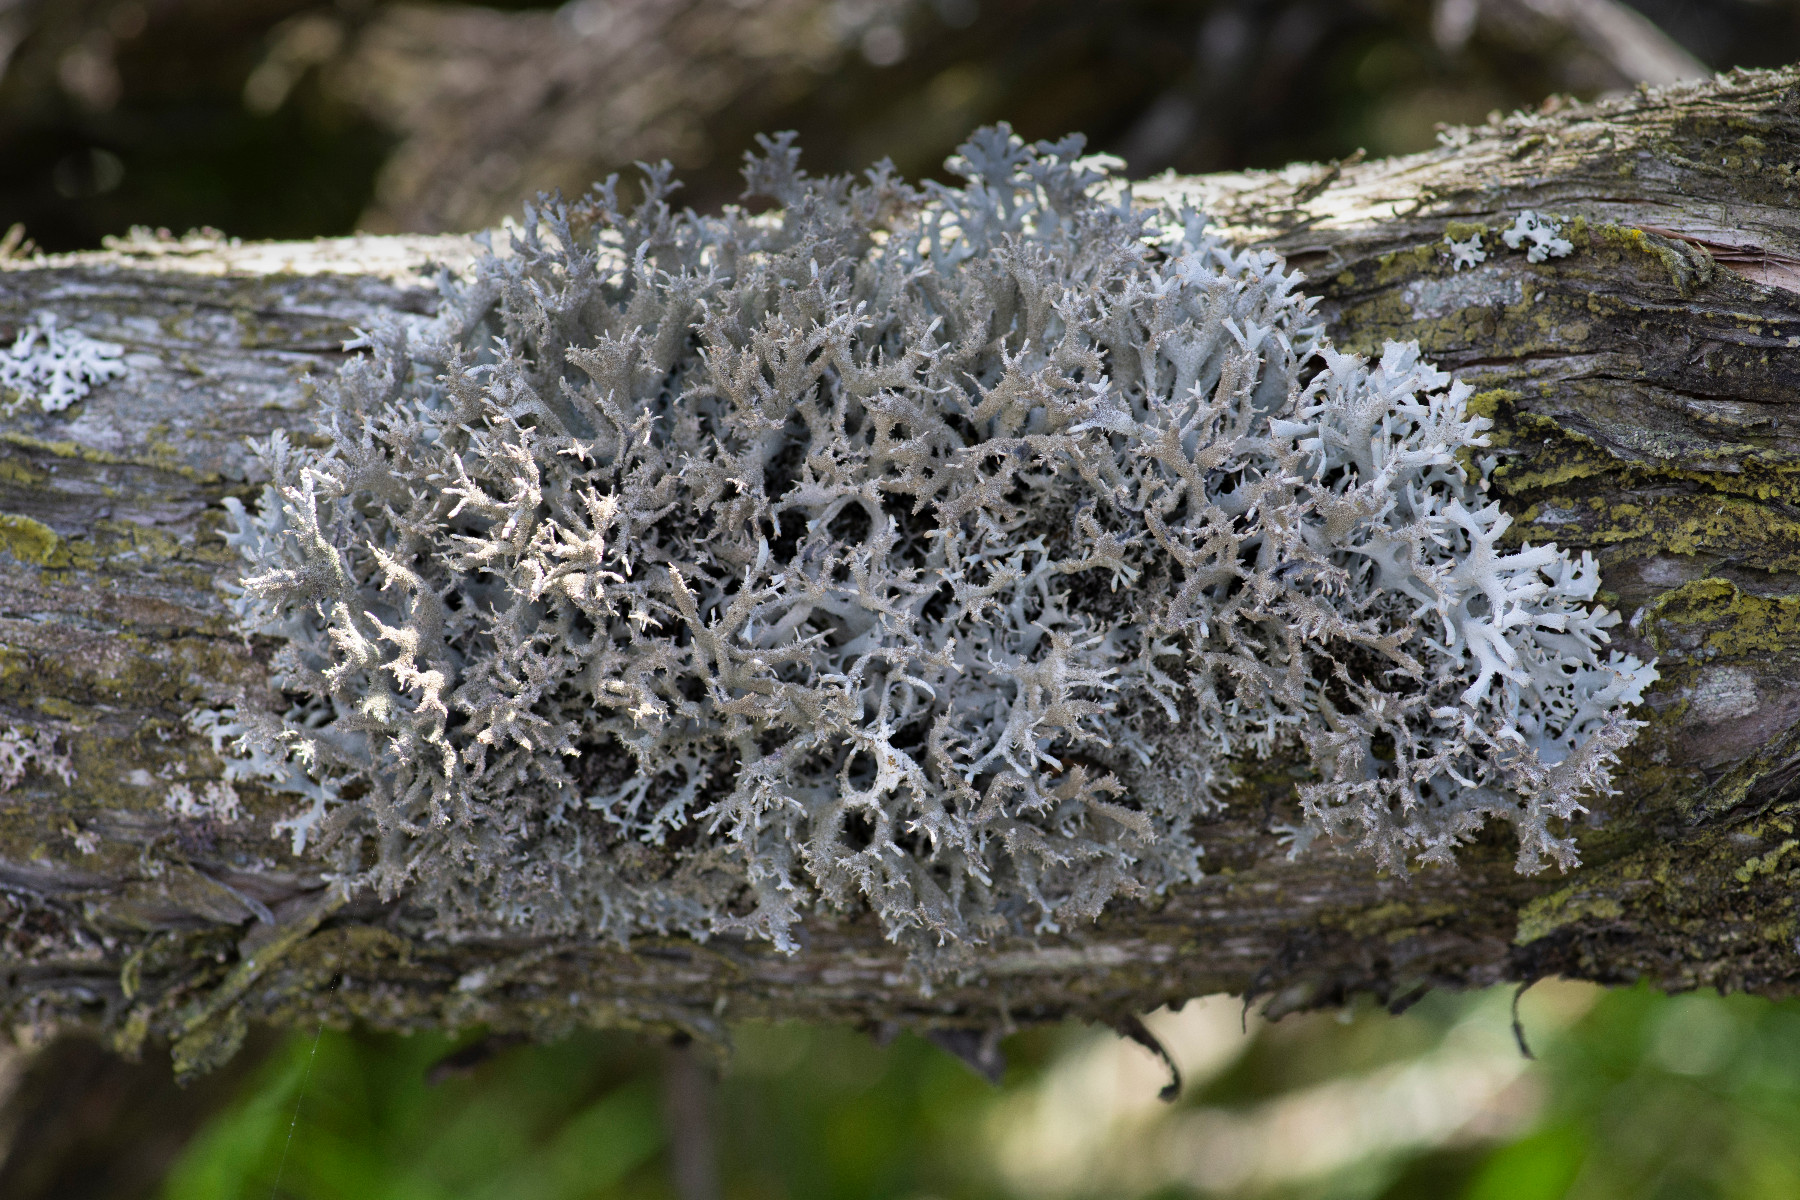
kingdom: Fungi
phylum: Ascomycota
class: Lecanoromycetes
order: Lecanorales
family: Parmeliaceae
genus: Pseudevernia
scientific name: Pseudevernia furfuracea
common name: grå fyrrelav
